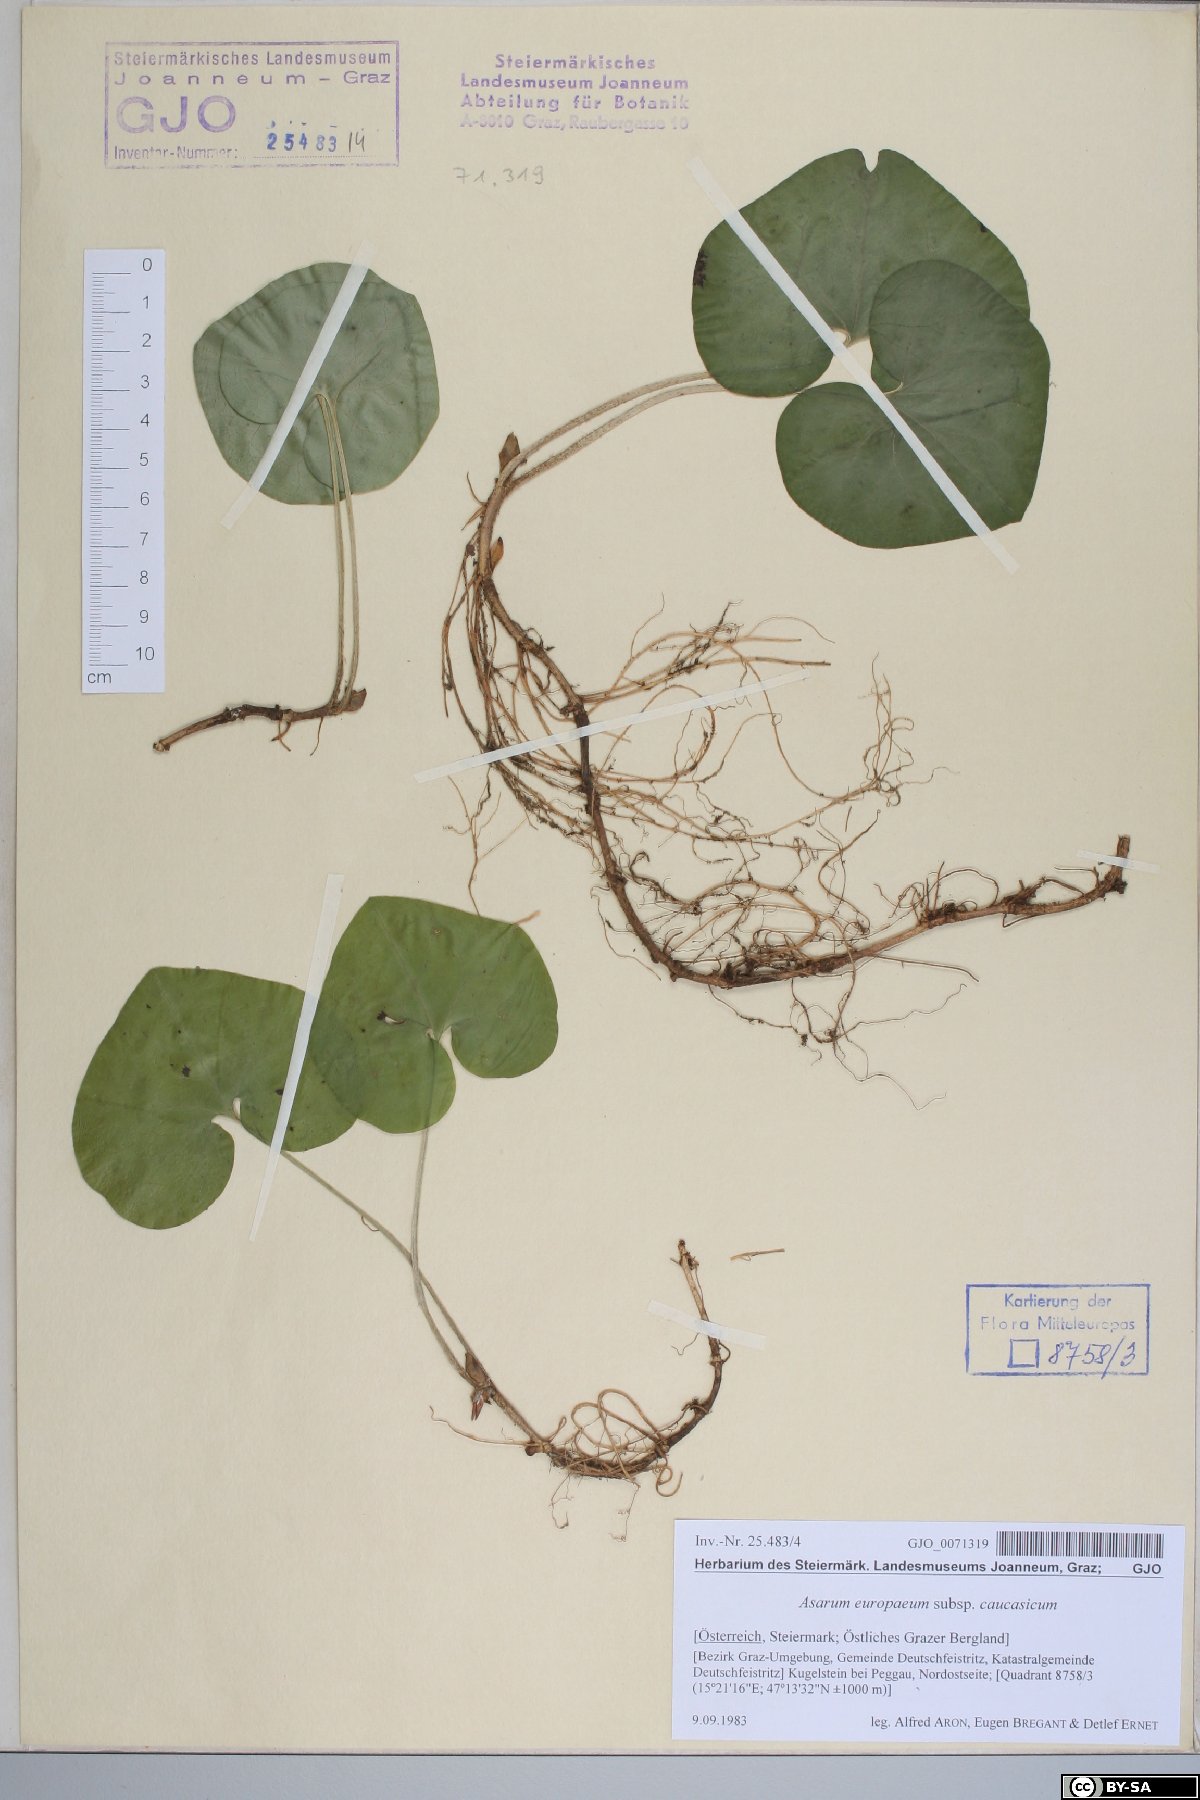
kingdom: Plantae
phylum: Tracheophyta
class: Magnoliopsida
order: Piperales
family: Aristolochiaceae
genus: Asarum
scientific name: Asarum europaeum
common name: Asarabacca
